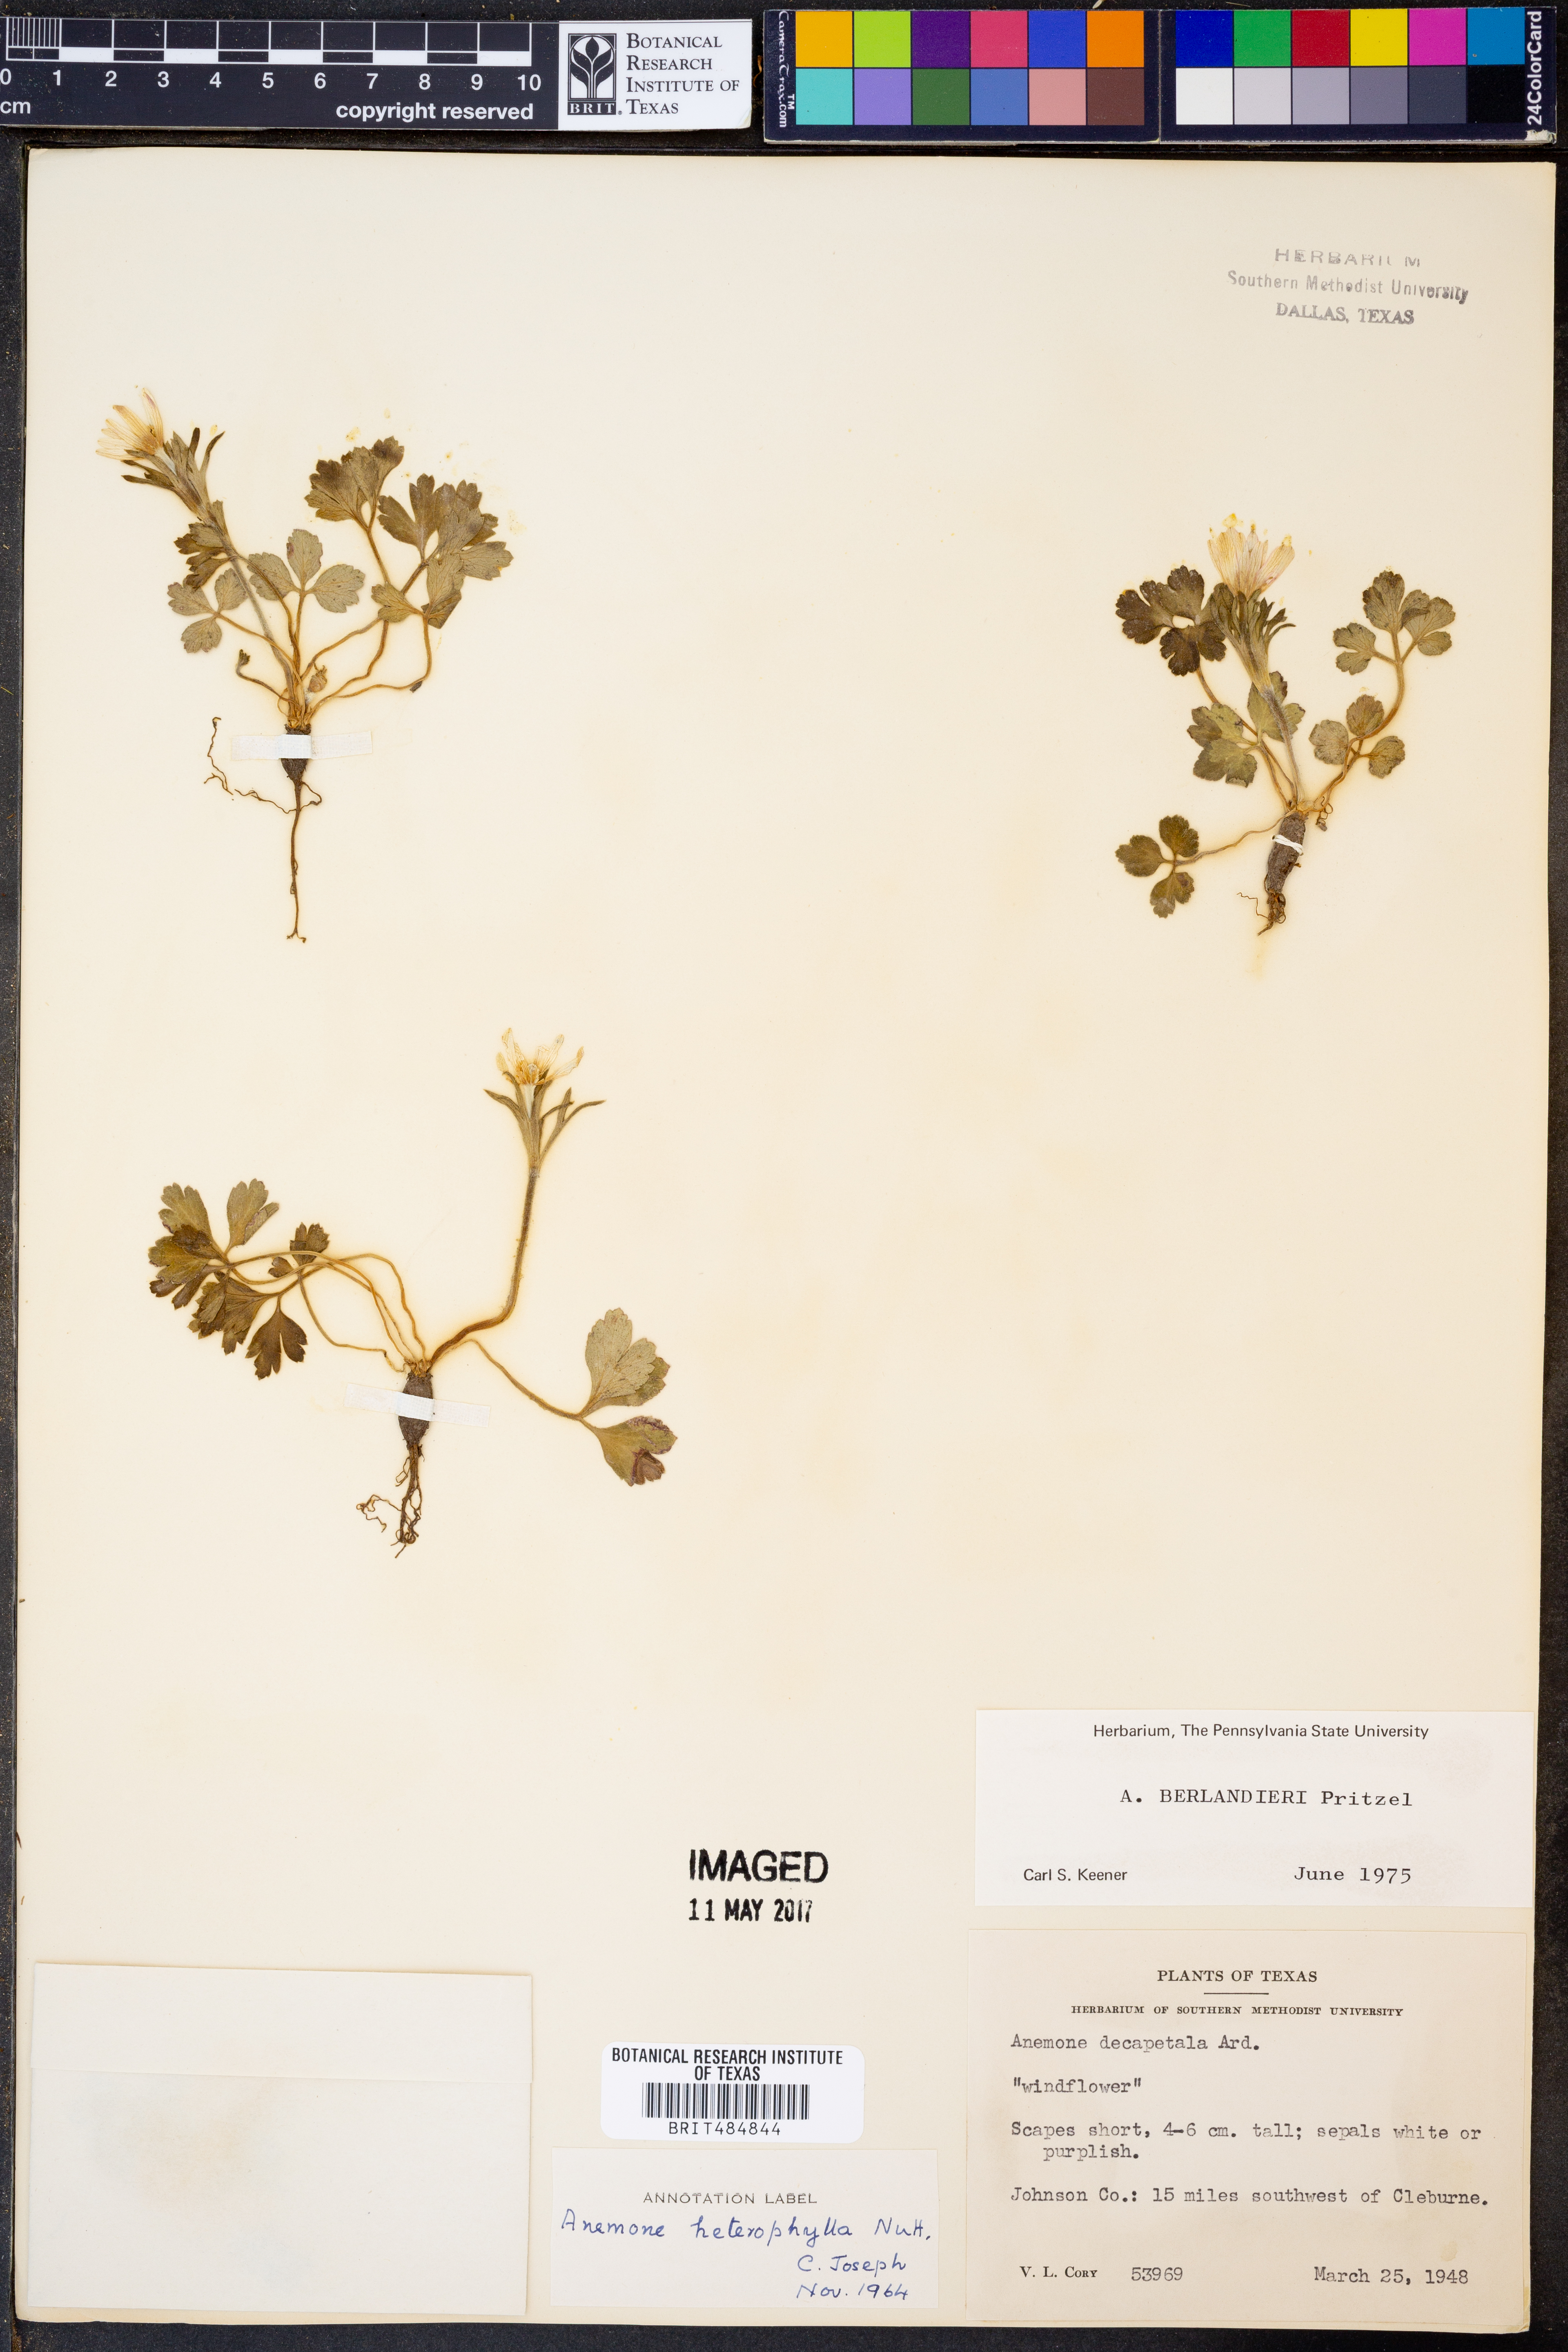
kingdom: Plantae
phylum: Tracheophyta
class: Magnoliopsida
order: Ranunculales
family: Ranunculaceae
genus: Anemone
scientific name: Anemone berlandieri
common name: Ten-petal anemone
